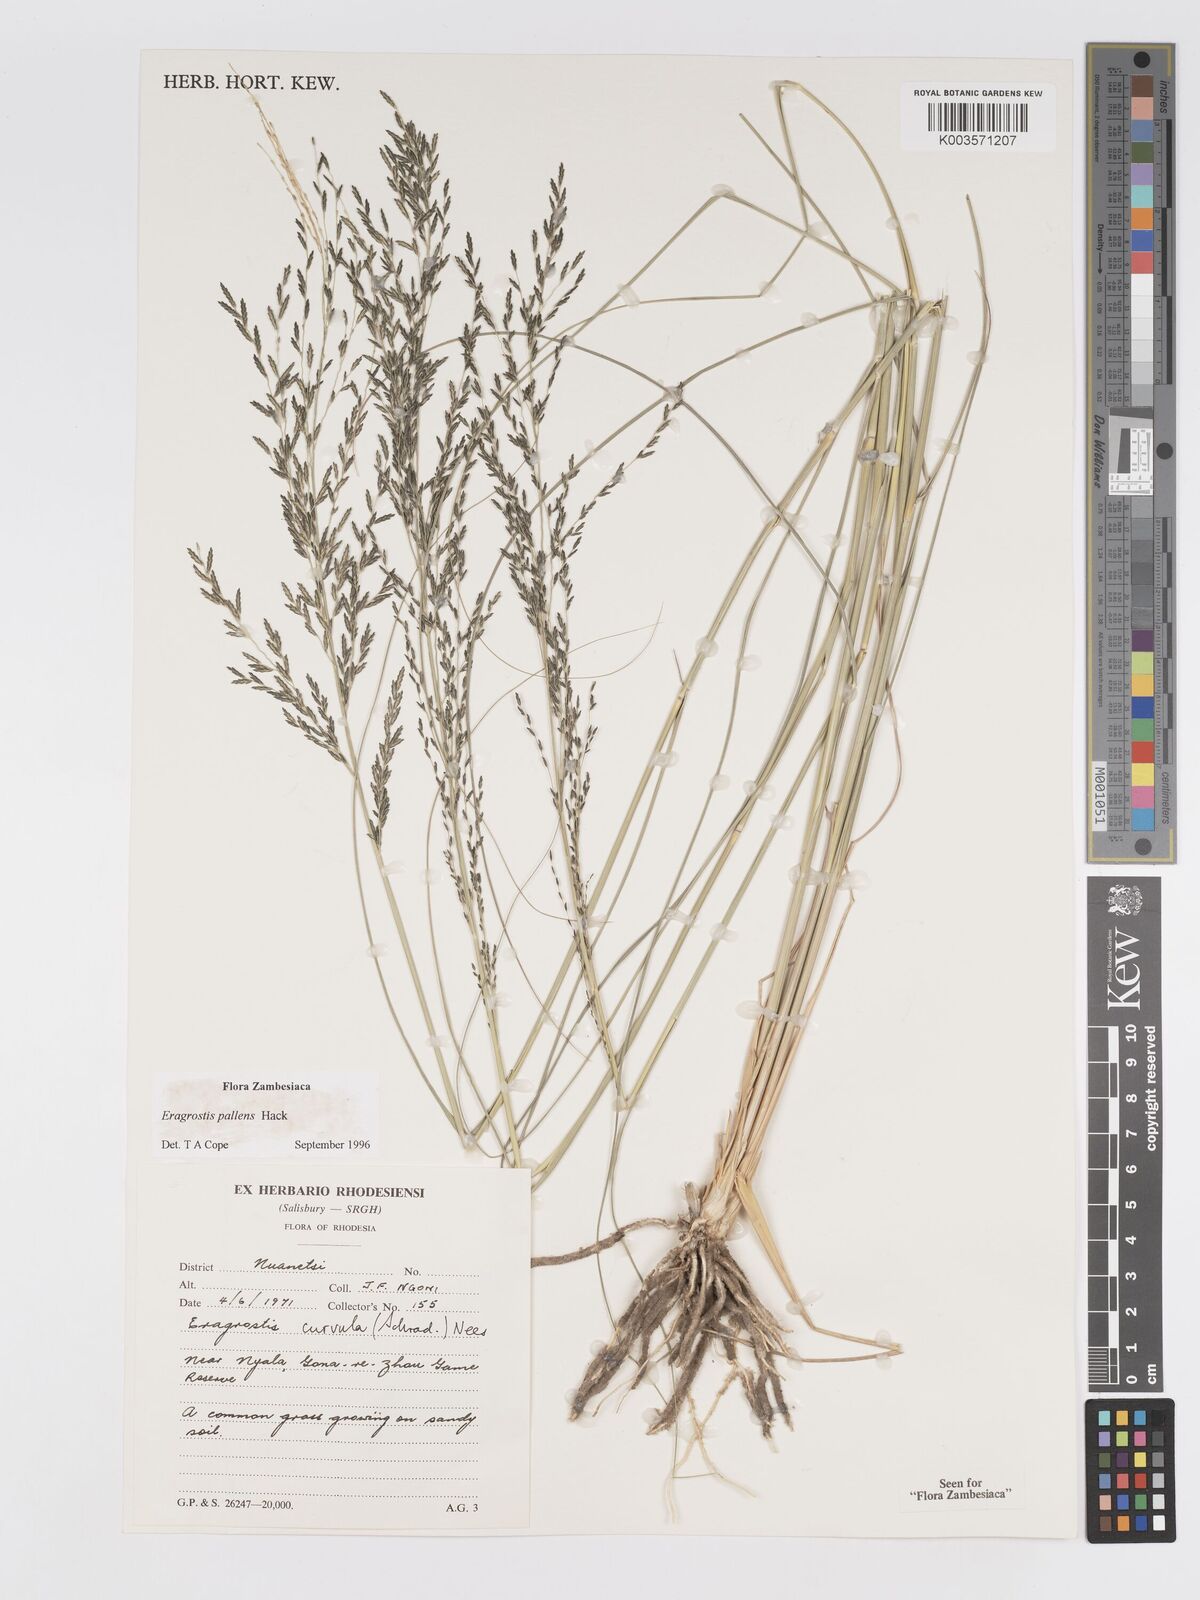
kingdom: Plantae
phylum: Tracheophyta
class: Liliopsida
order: Poales
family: Poaceae
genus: Eragrostis
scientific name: Eragrostis pallens
